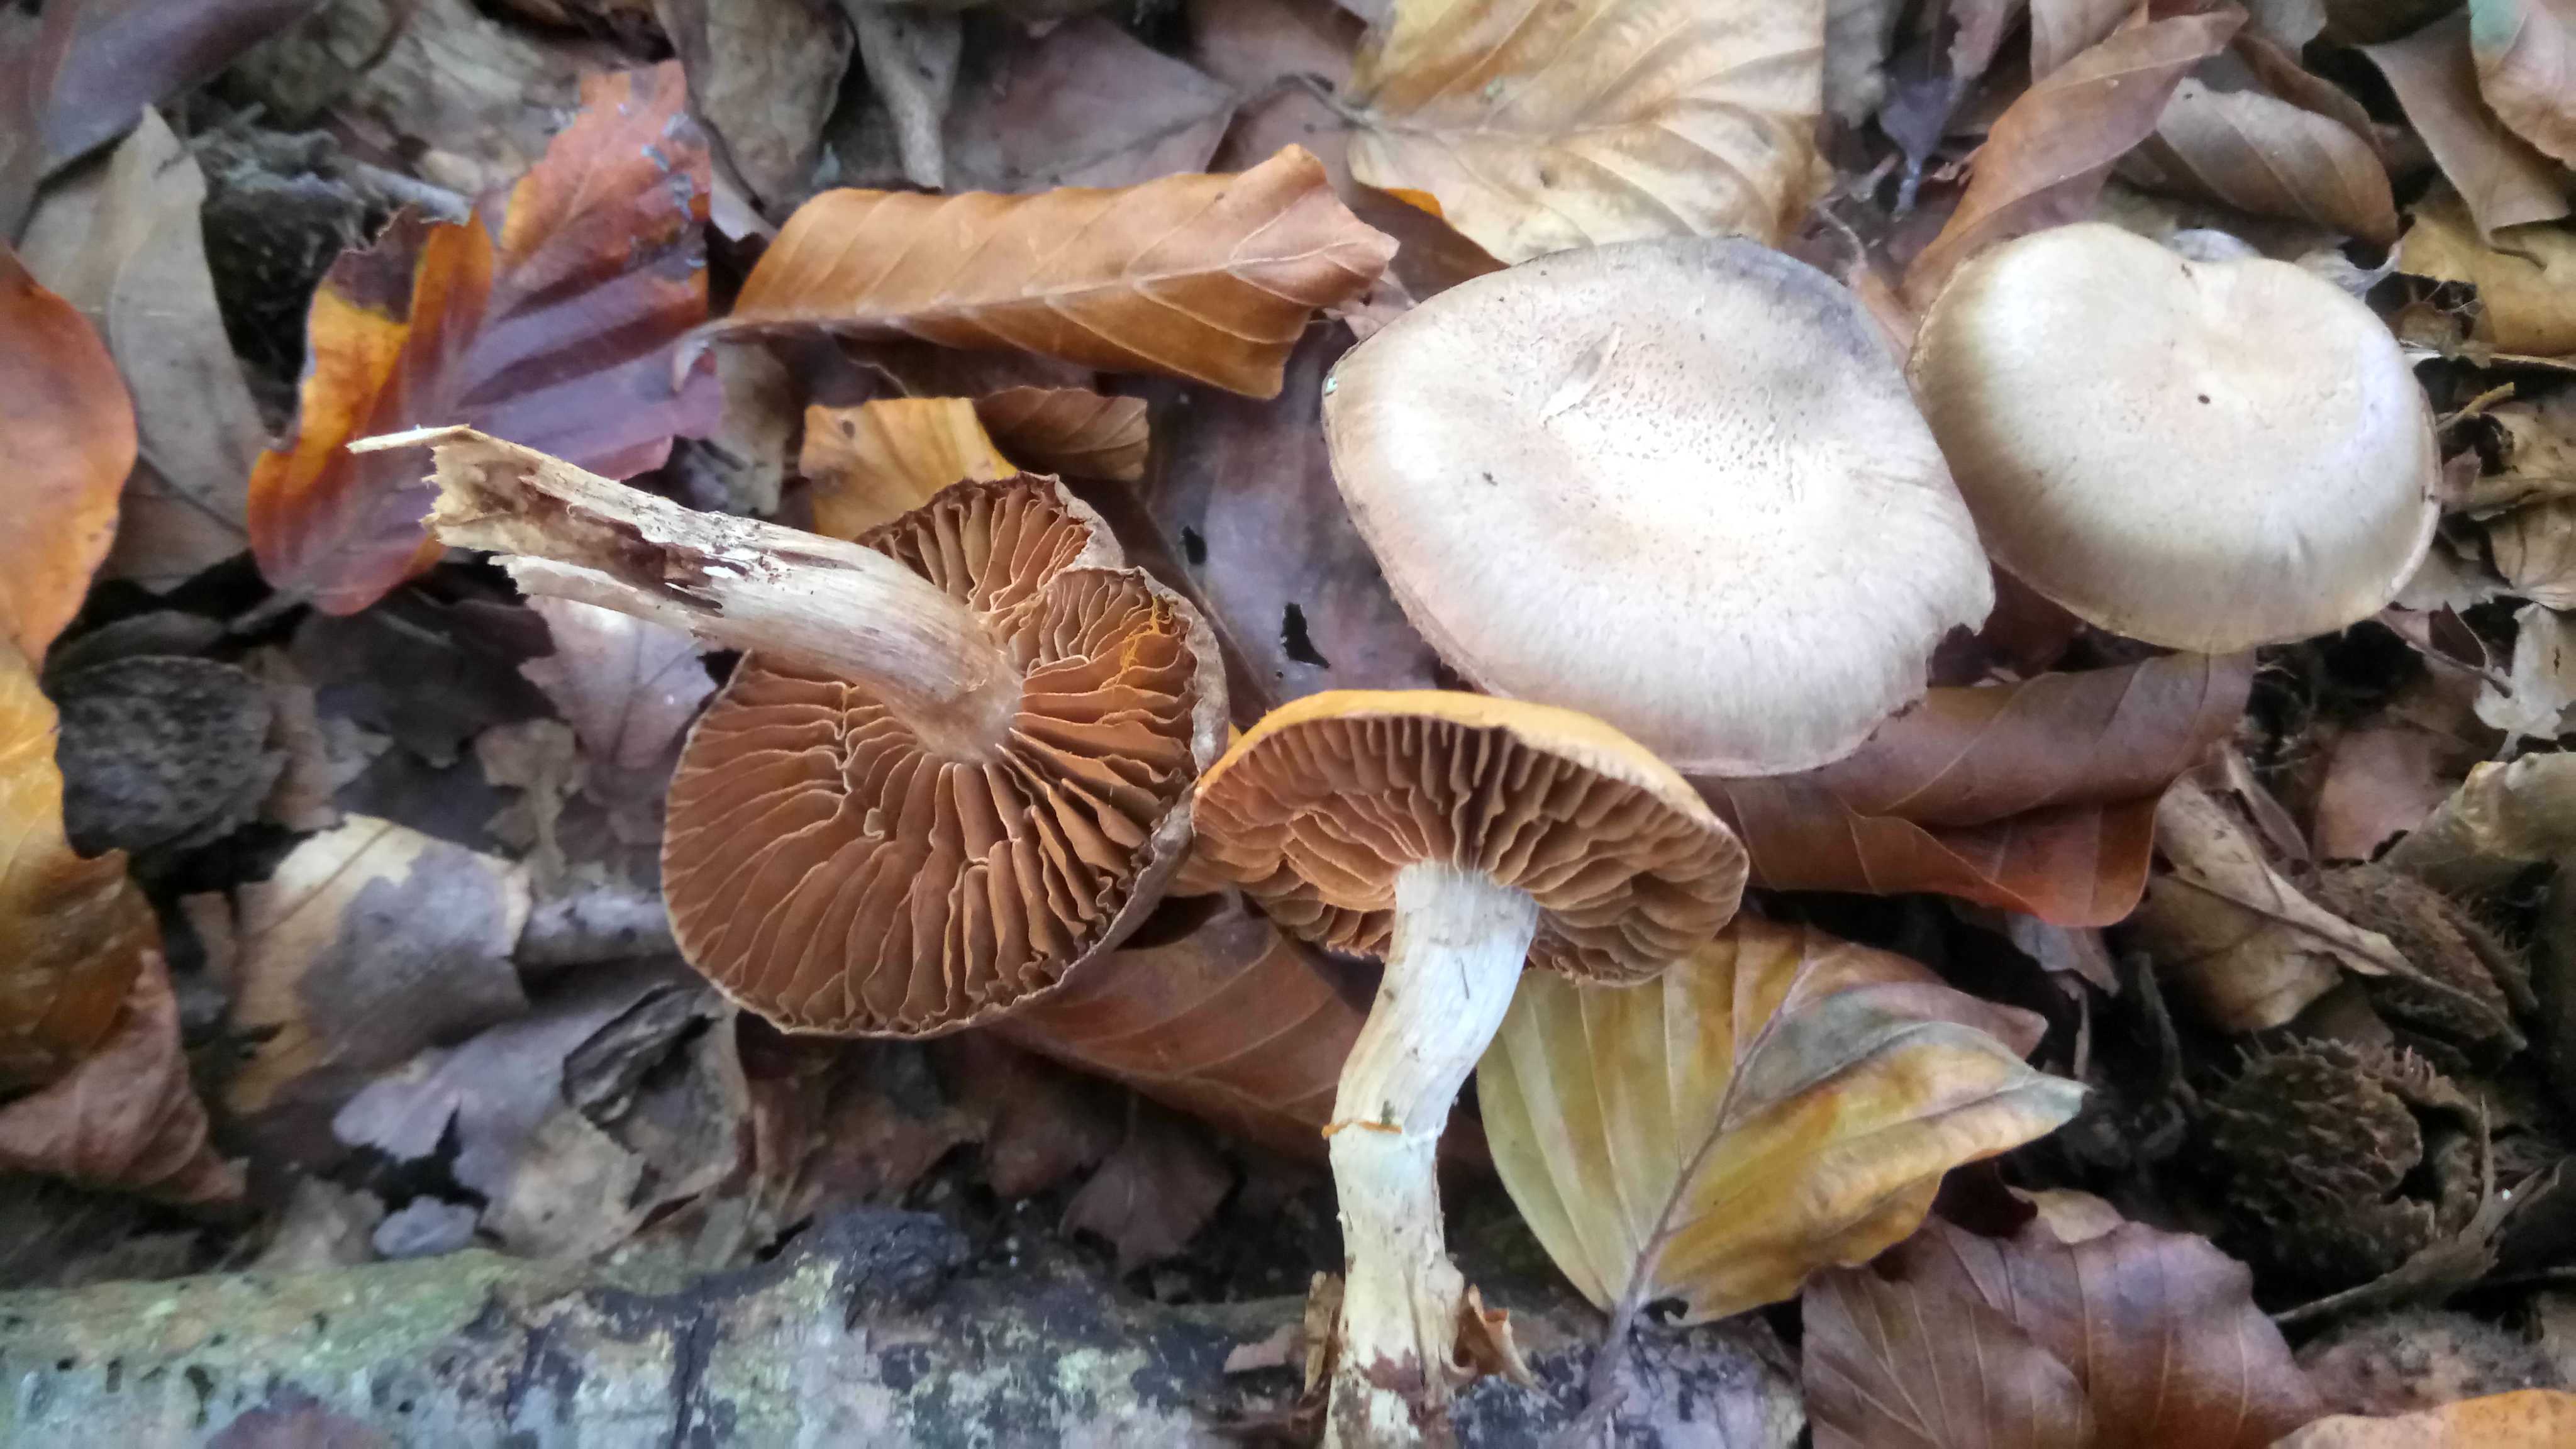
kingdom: Fungi
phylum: Basidiomycota
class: Agaricomycetes
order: Agaricales
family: Cortinariaceae
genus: Cortinarius
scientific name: Cortinarius torvus
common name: champignonagtig slørhat
